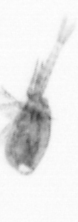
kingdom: Animalia
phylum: Arthropoda
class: Copepoda
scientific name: Copepoda
